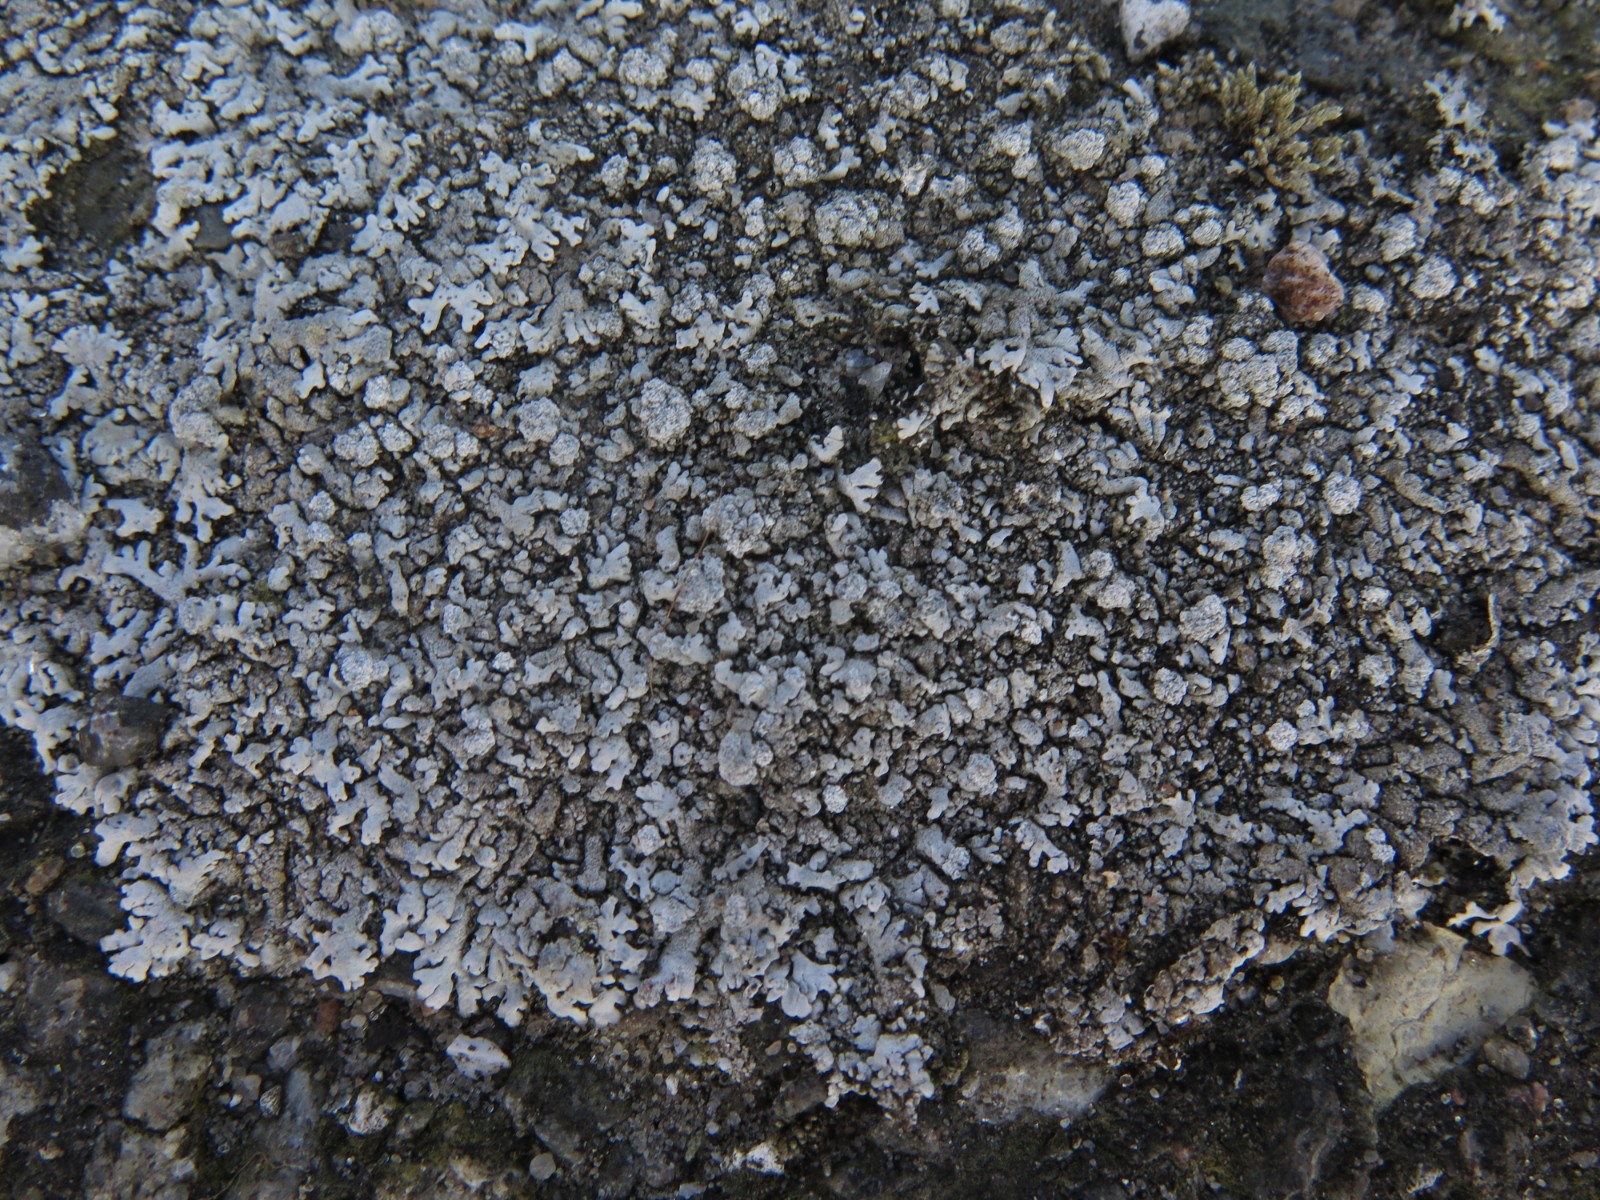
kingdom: Fungi
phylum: Ascomycota
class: Lecanoromycetes
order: Caliciales
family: Physciaceae
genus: Physcia
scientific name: Physcia caesia
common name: blågrå rosetlav
